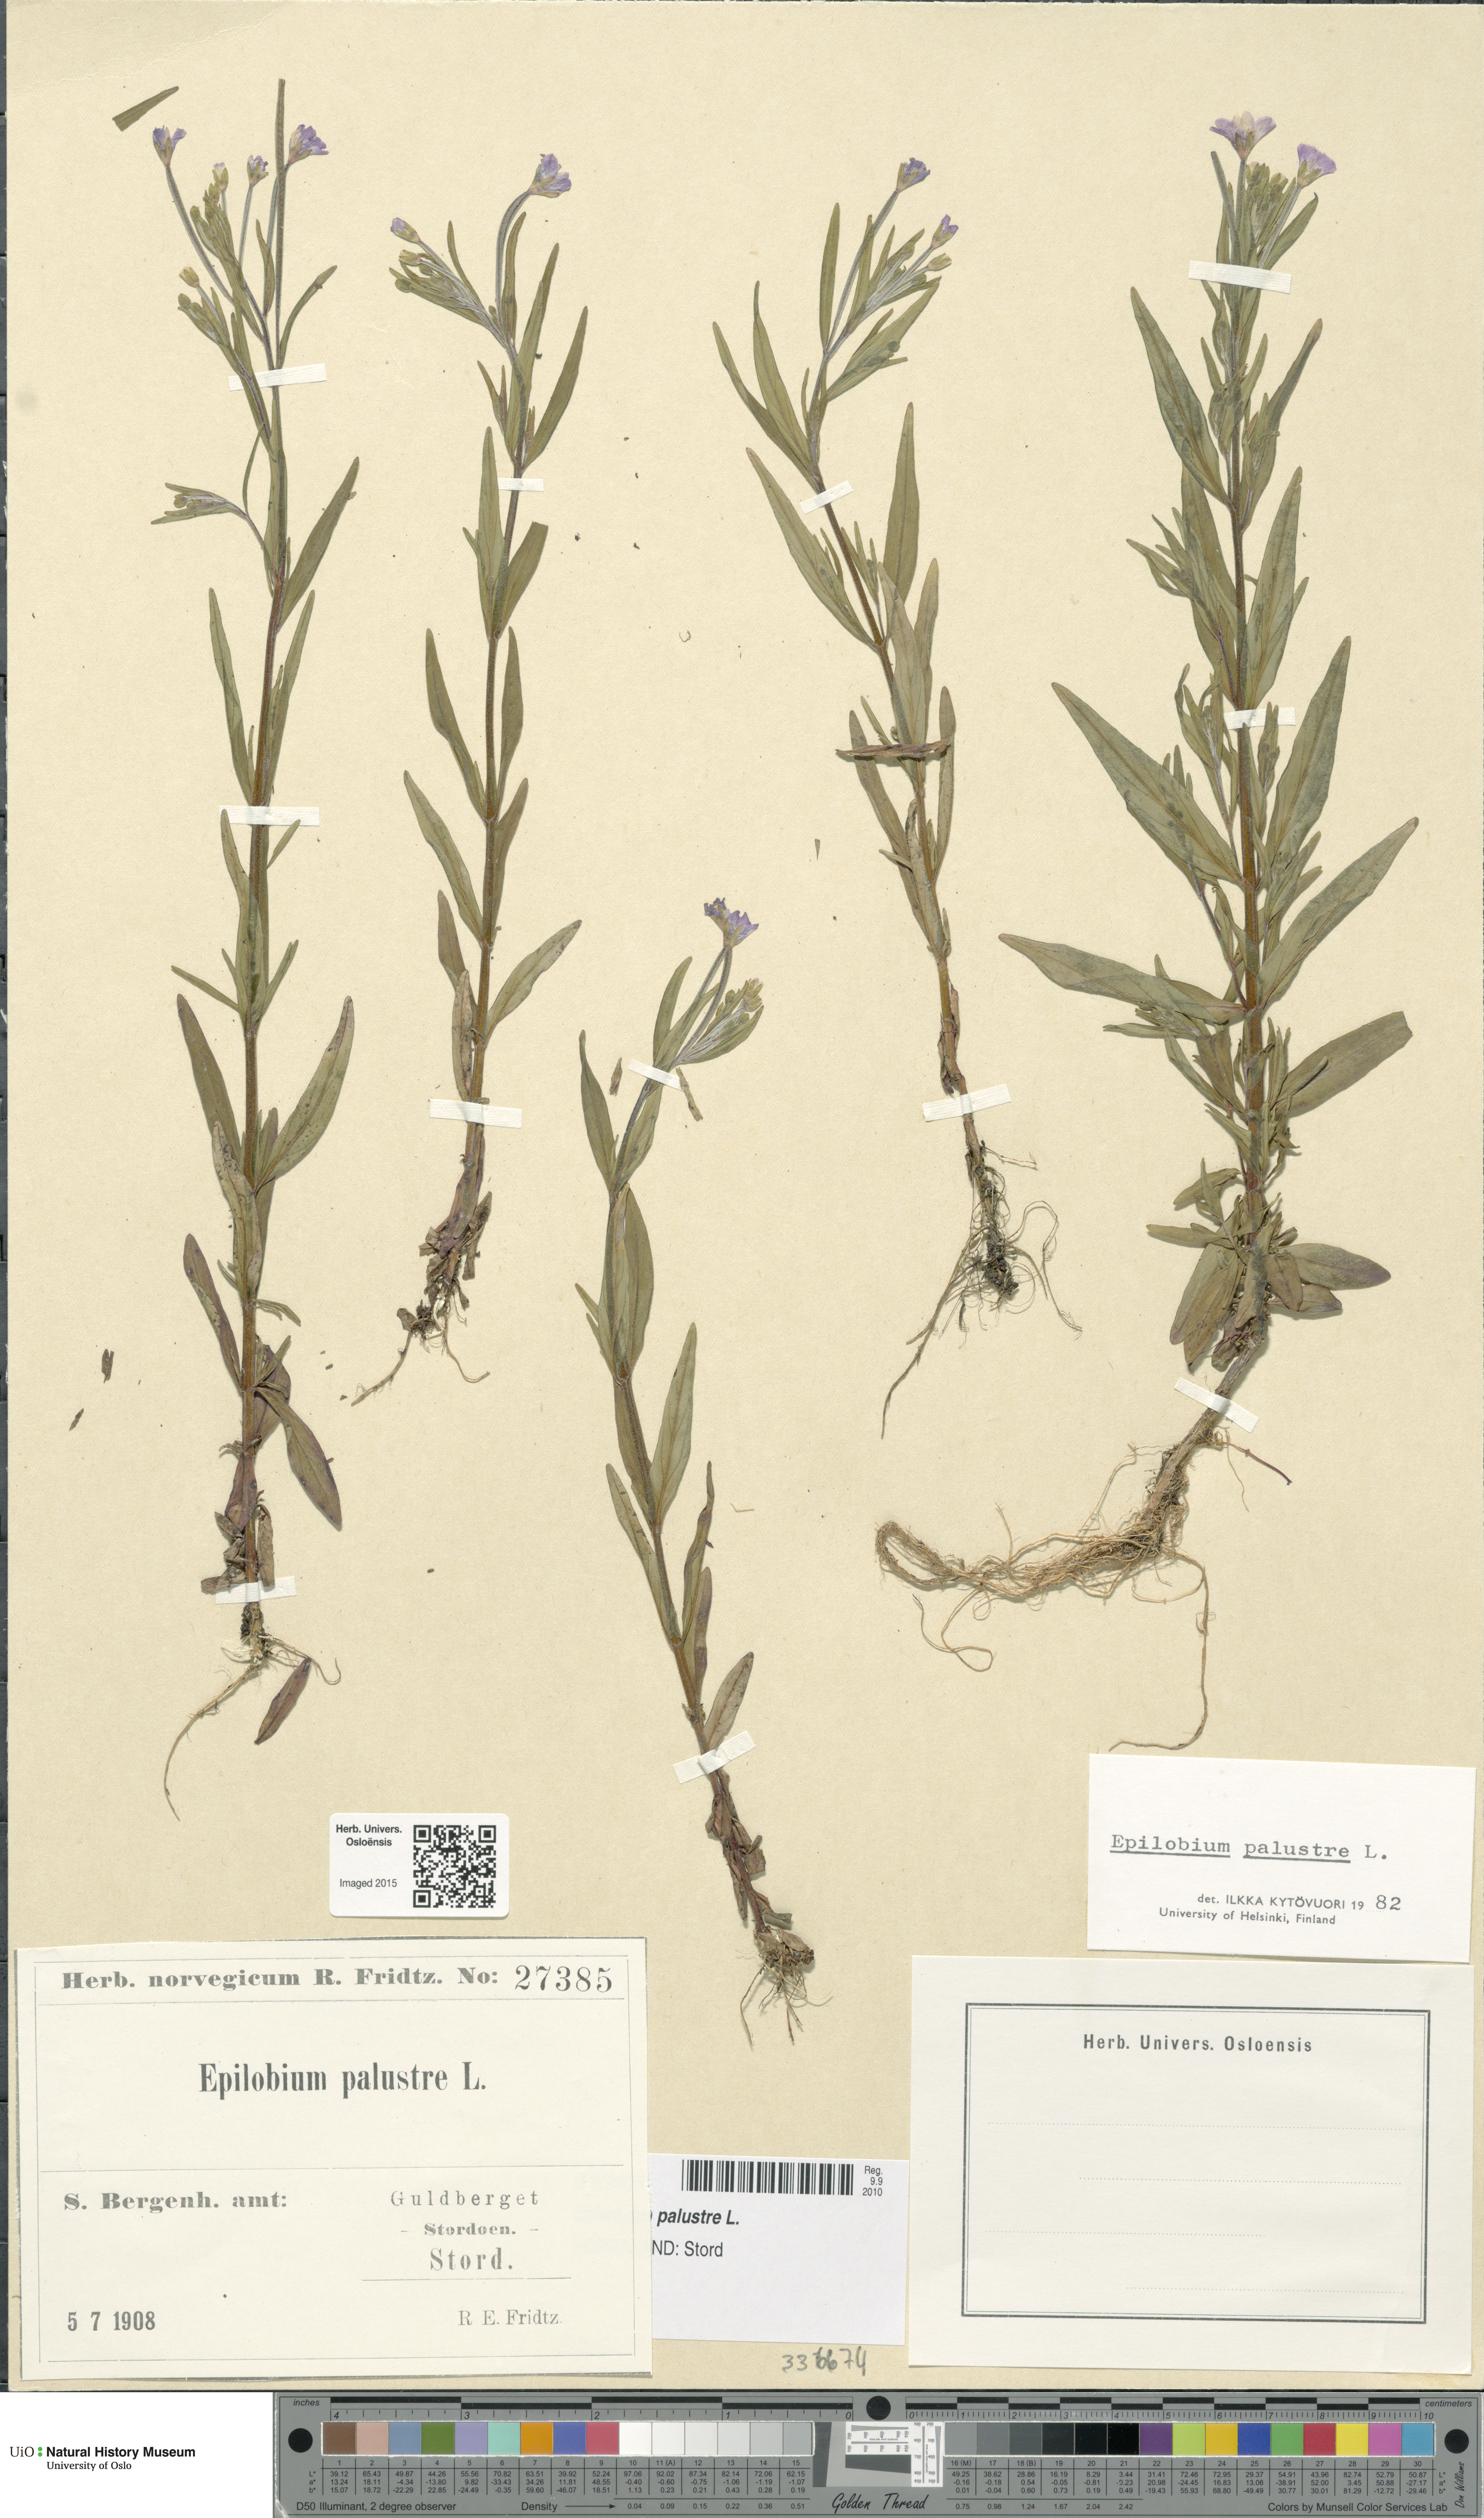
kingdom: Plantae
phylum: Tracheophyta
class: Magnoliopsida
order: Myrtales
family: Onagraceae
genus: Epilobium
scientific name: Epilobium palustre
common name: Marsh willowherb
